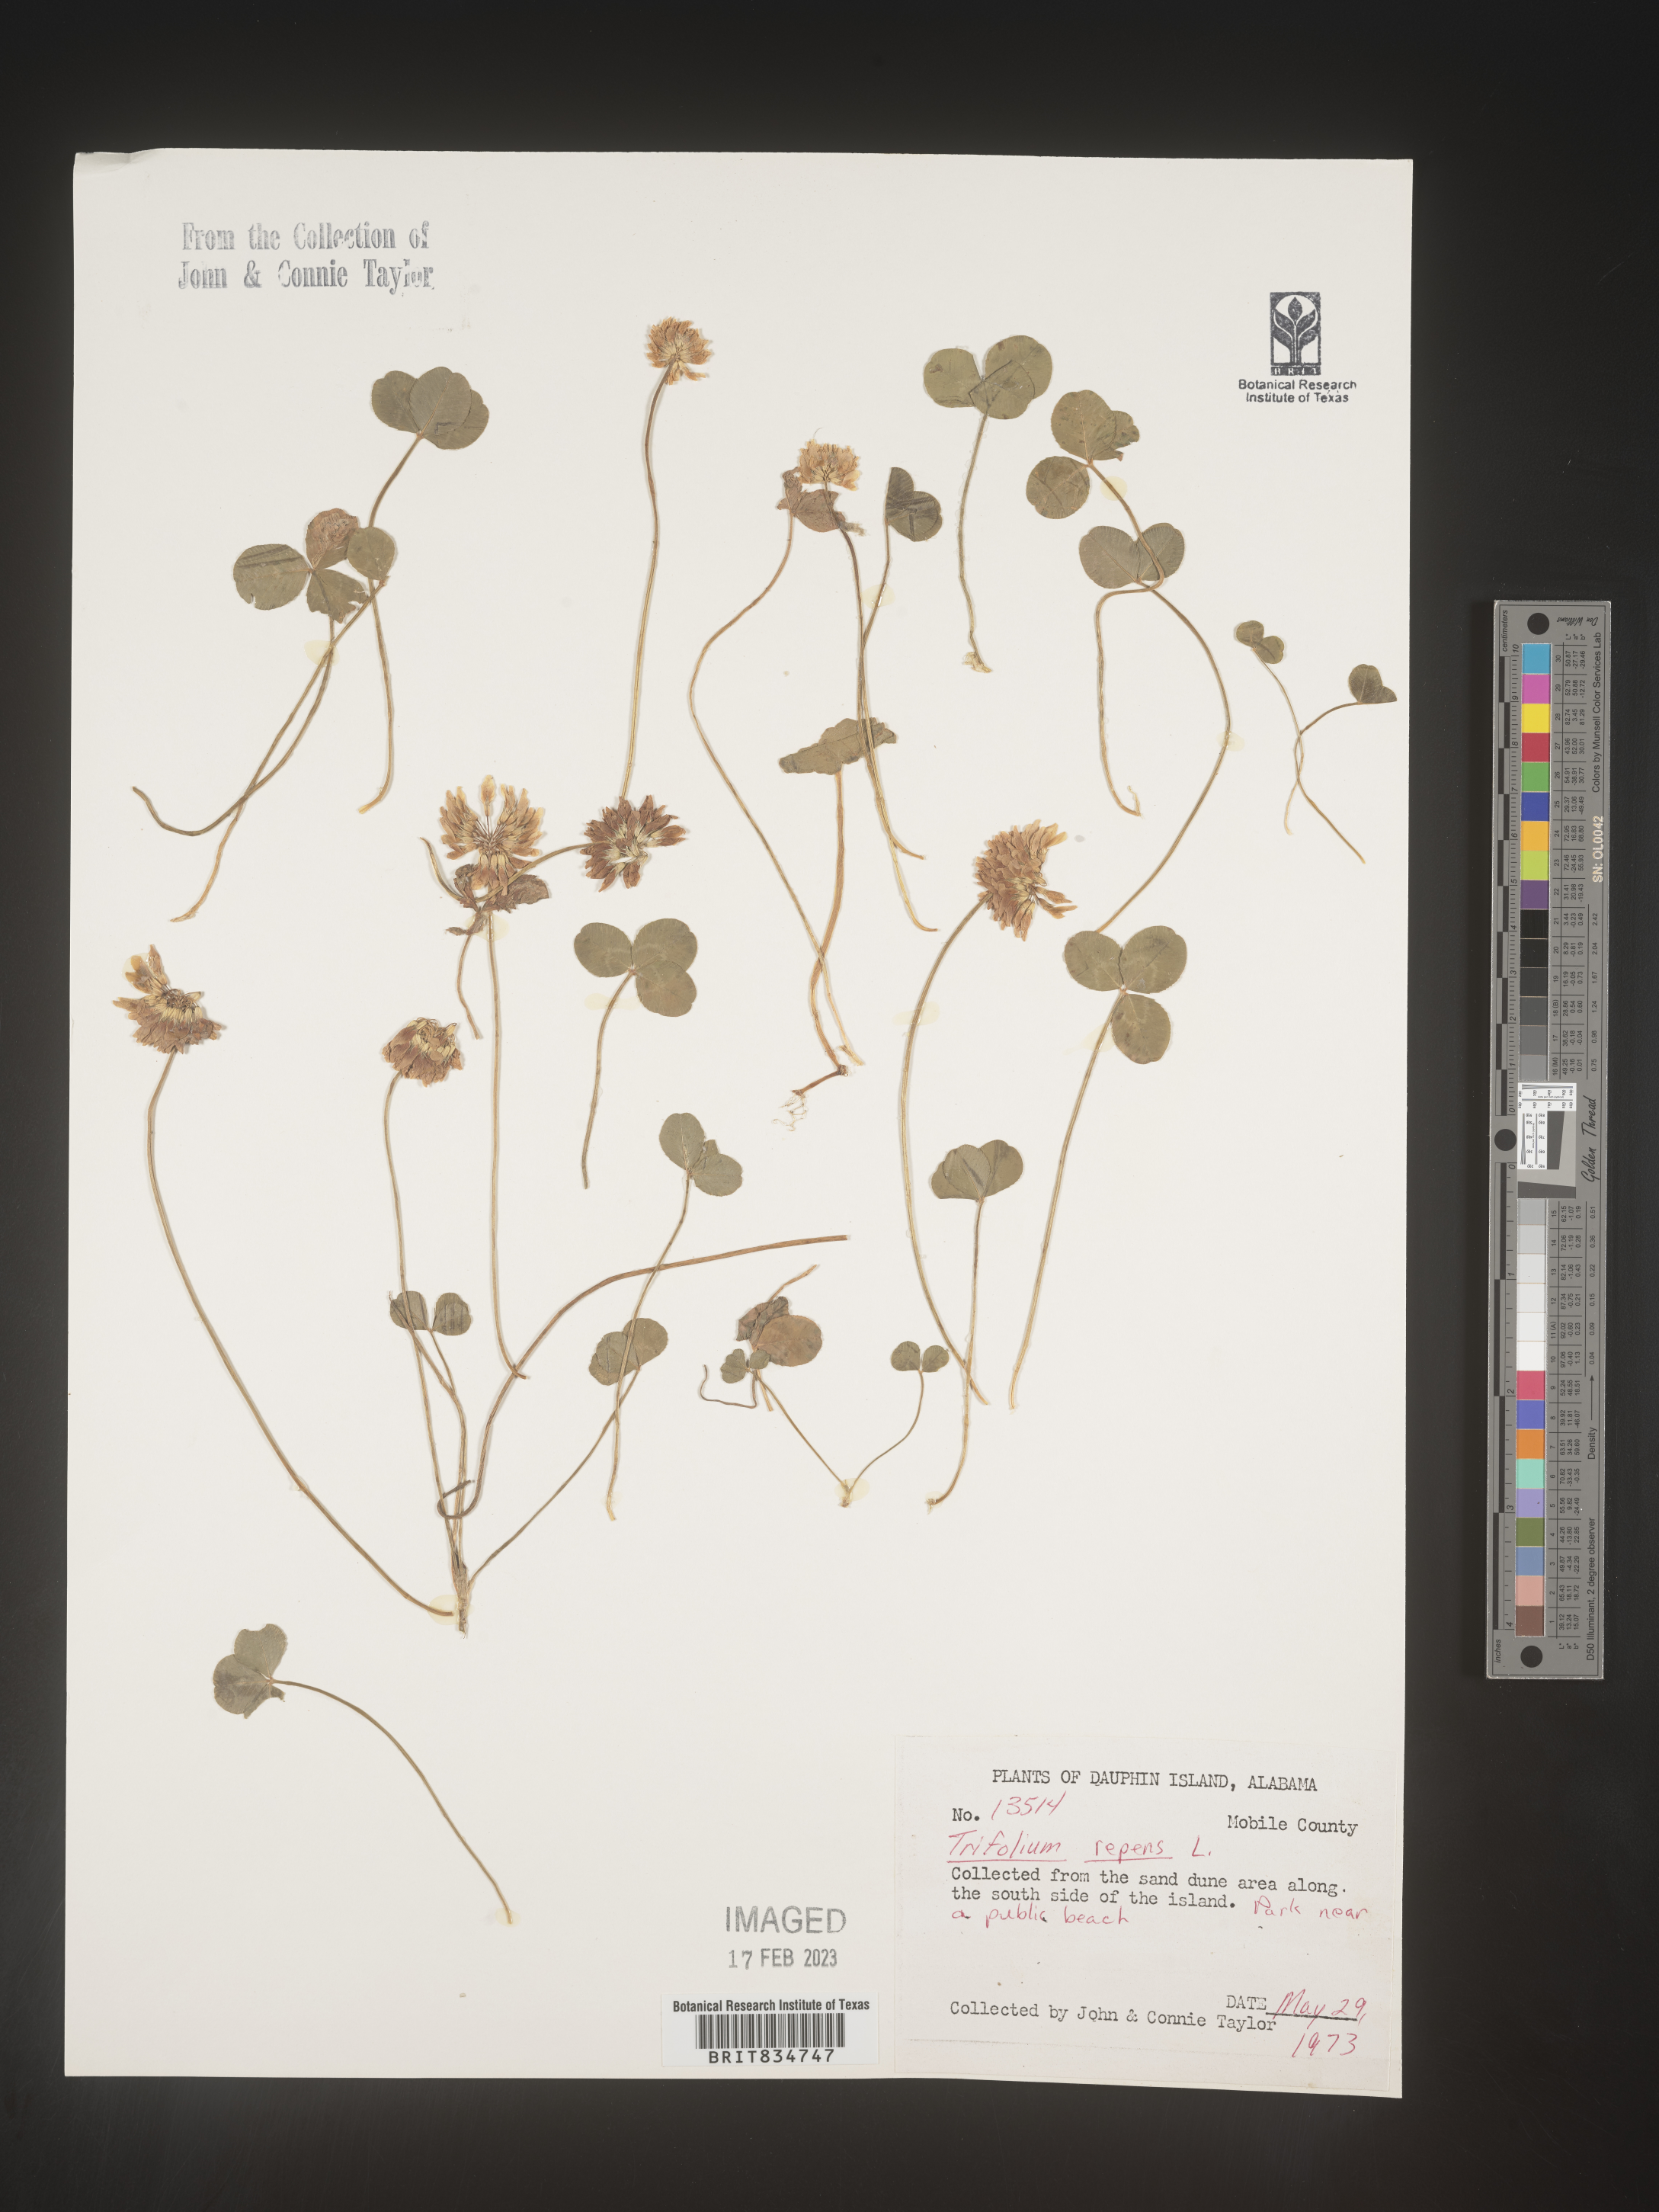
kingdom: Plantae
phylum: Tracheophyta
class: Magnoliopsida
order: Fabales
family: Fabaceae
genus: Trifolium
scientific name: Trifolium repens
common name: White clover
